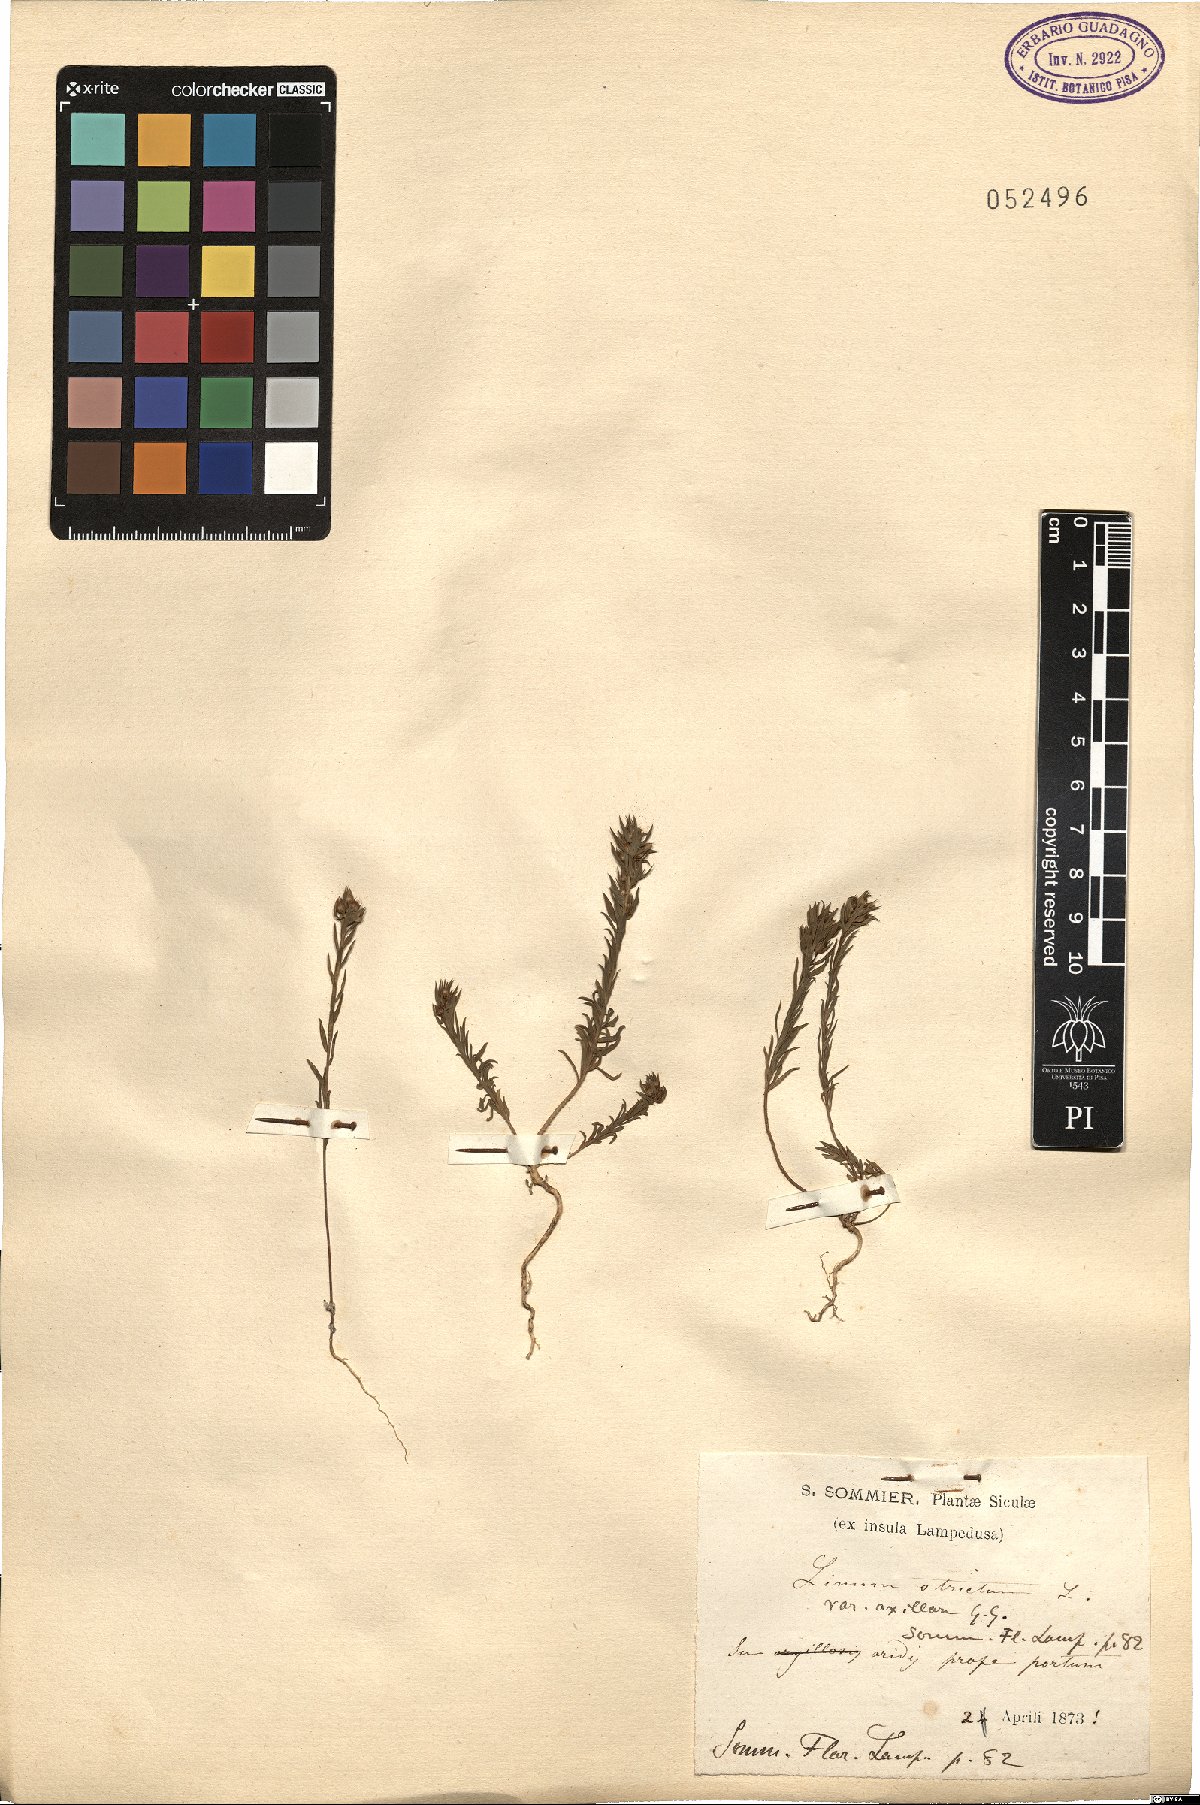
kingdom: Plantae
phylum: Tracheophyta
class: Magnoliopsida
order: Malpighiales
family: Linaceae
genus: Linum
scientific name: Linum strictum
